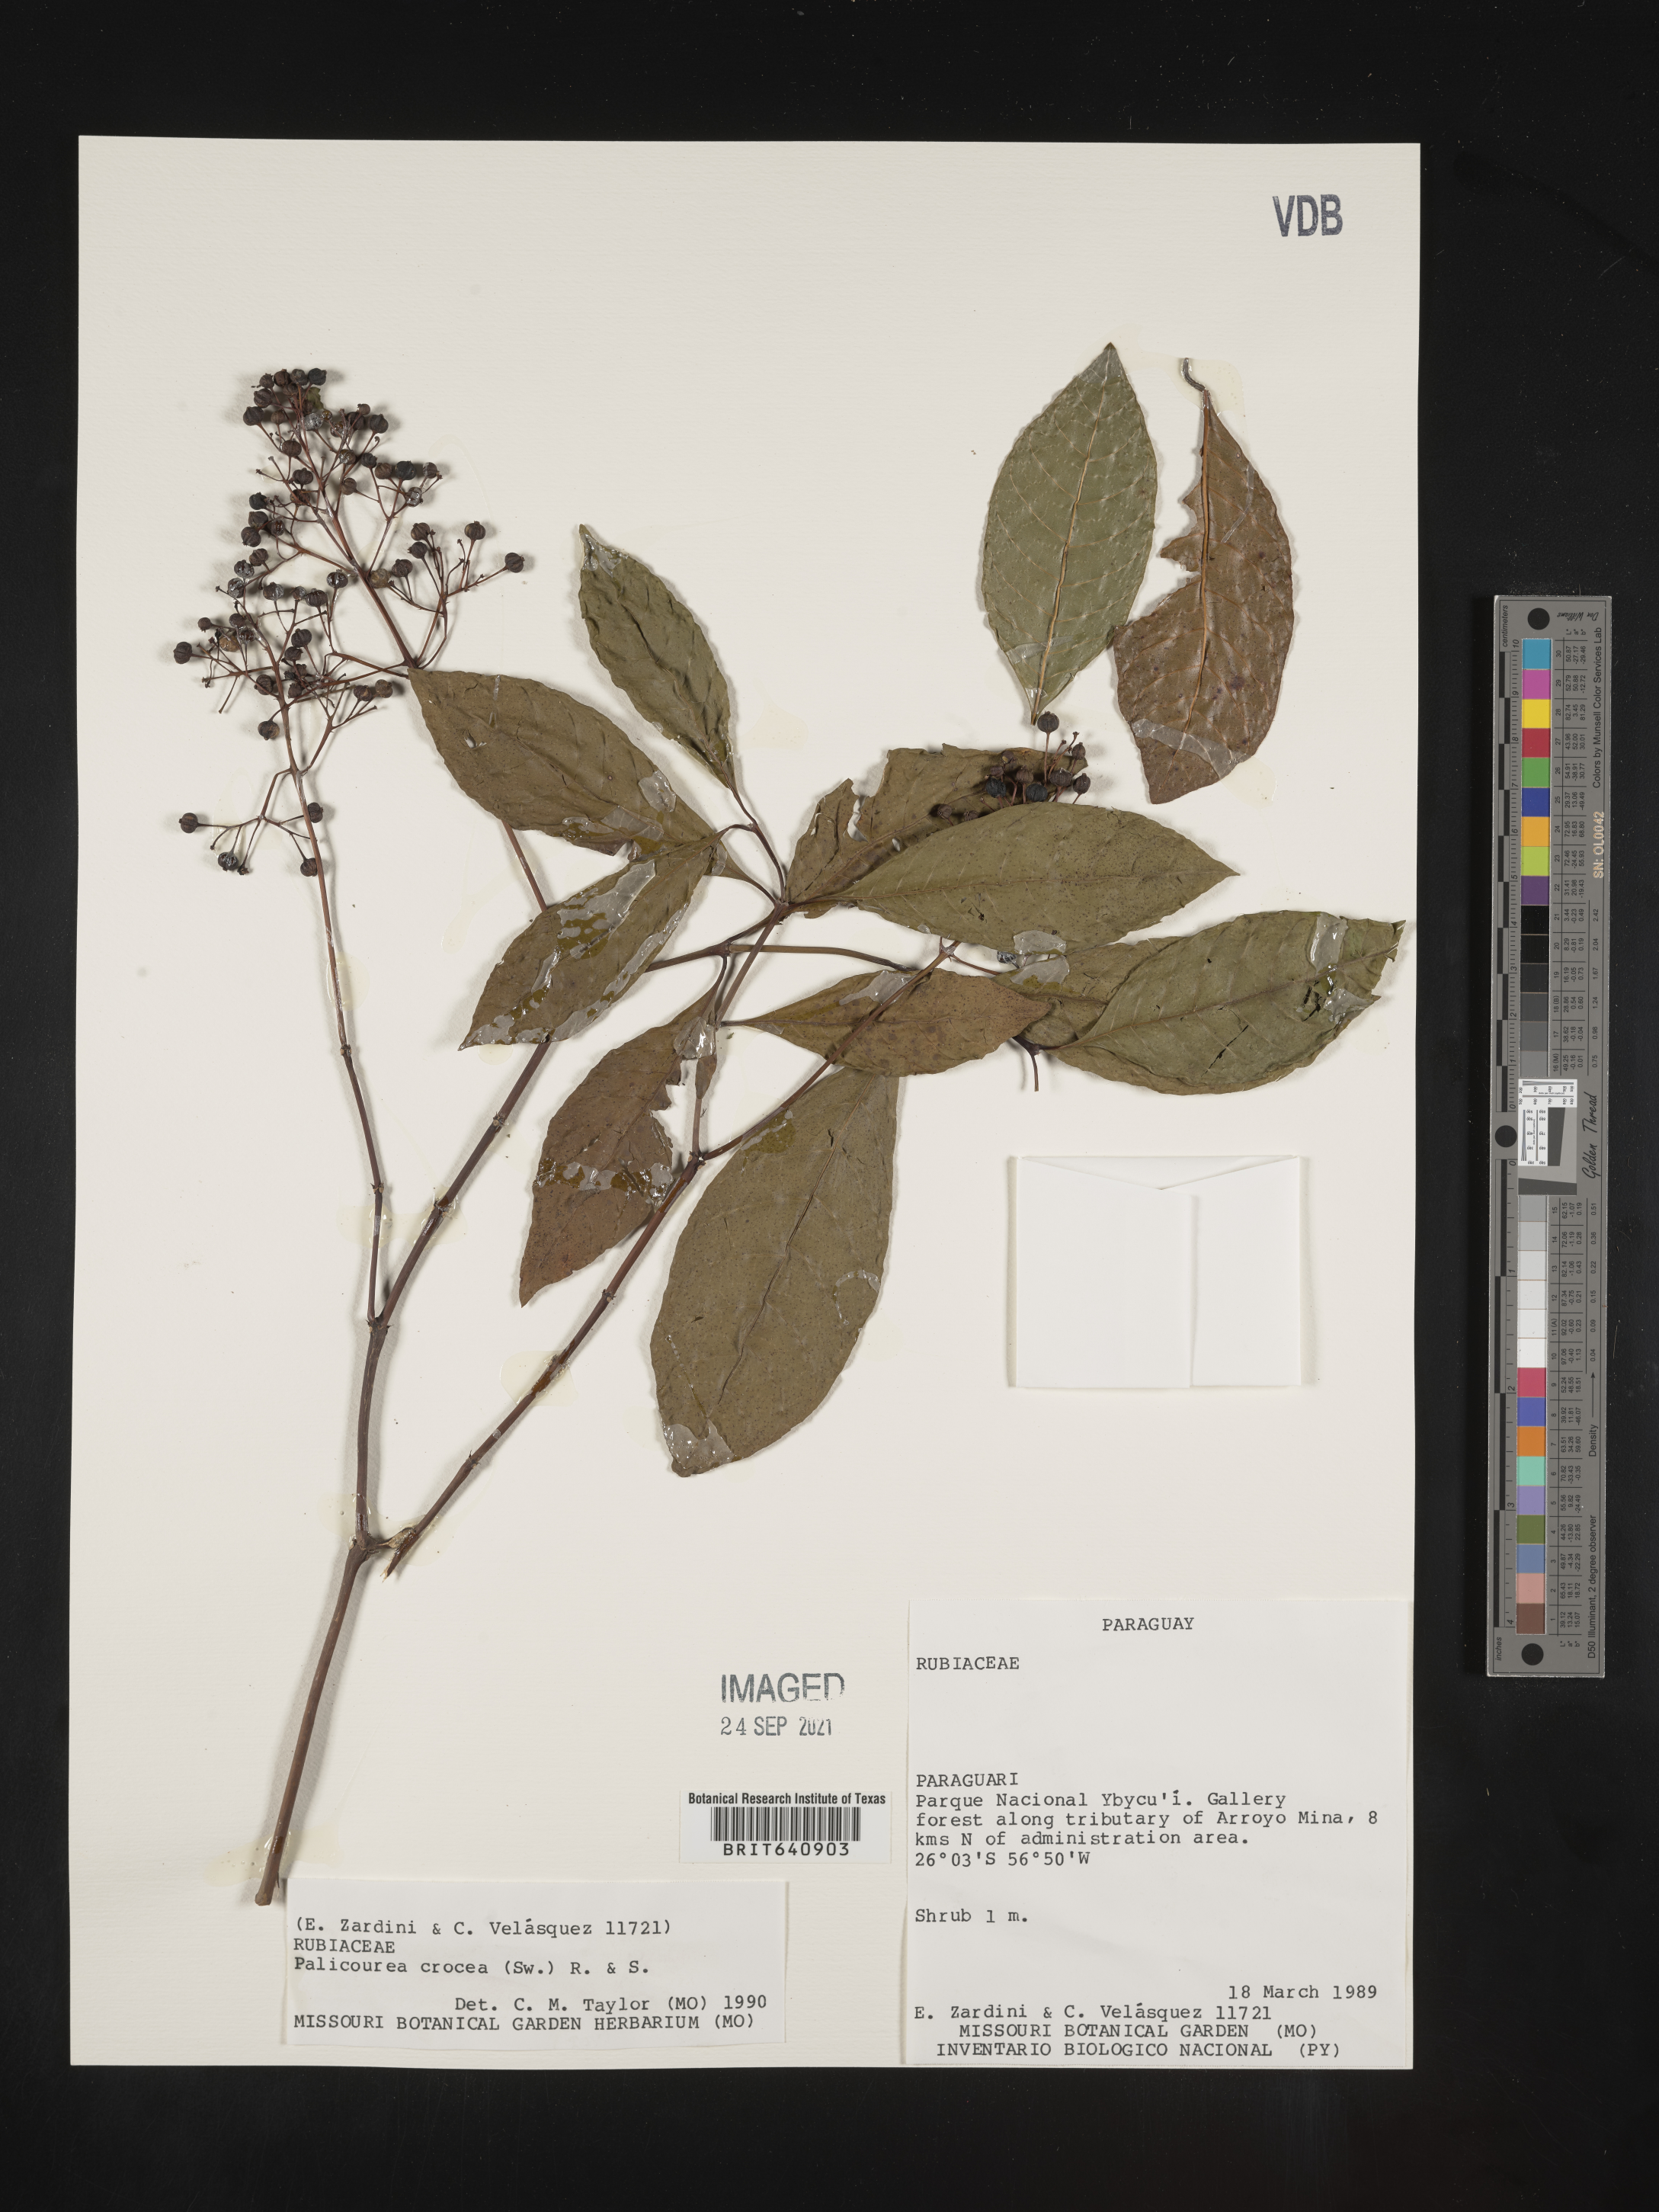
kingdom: Plantae
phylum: Tracheophyta
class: Magnoliopsida
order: Gentianales
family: Rubiaceae
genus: Palicourea
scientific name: Palicourea
